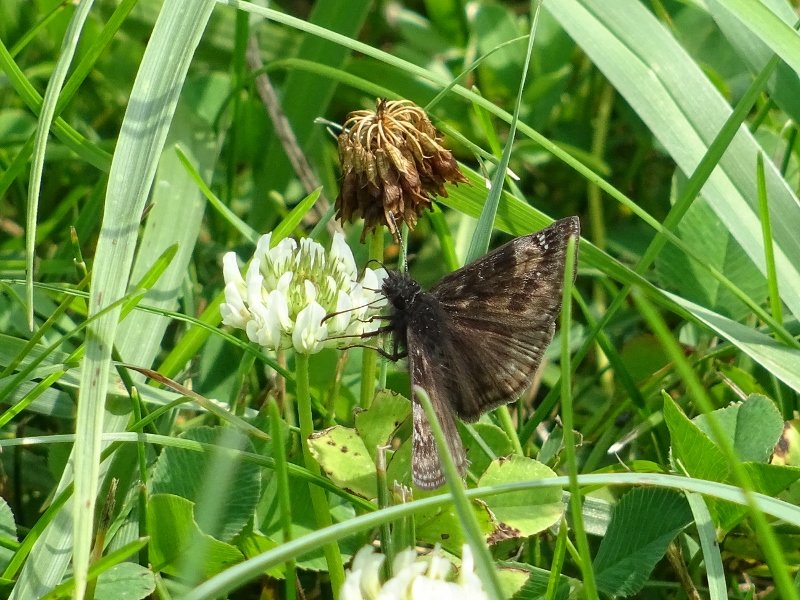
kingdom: Animalia
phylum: Arthropoda
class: Insecta
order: Lepidoptera
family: Hesperiidae
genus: Gesta
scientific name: Gesta
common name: Wild Indigo Duskywing
